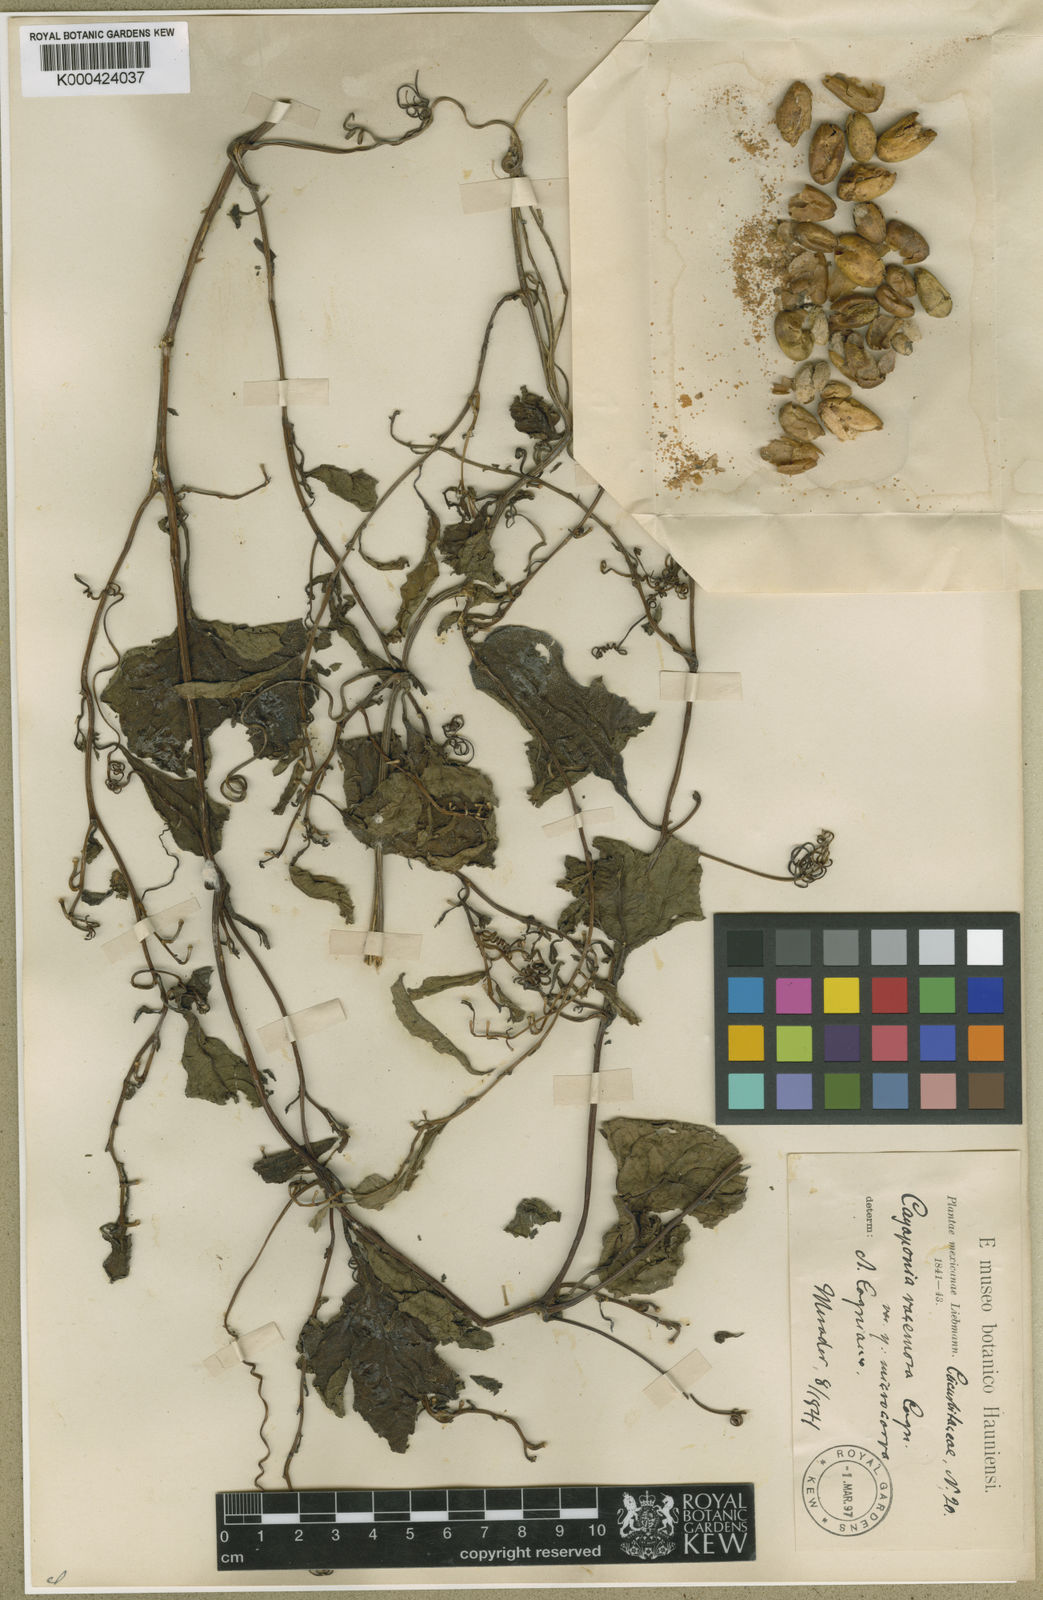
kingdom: Plantae
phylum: Tracheophyta
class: Magnoliopsida
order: Cucurbitales
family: Cucurbitaceae
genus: Cayaponia
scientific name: Cayaponia racemosa
